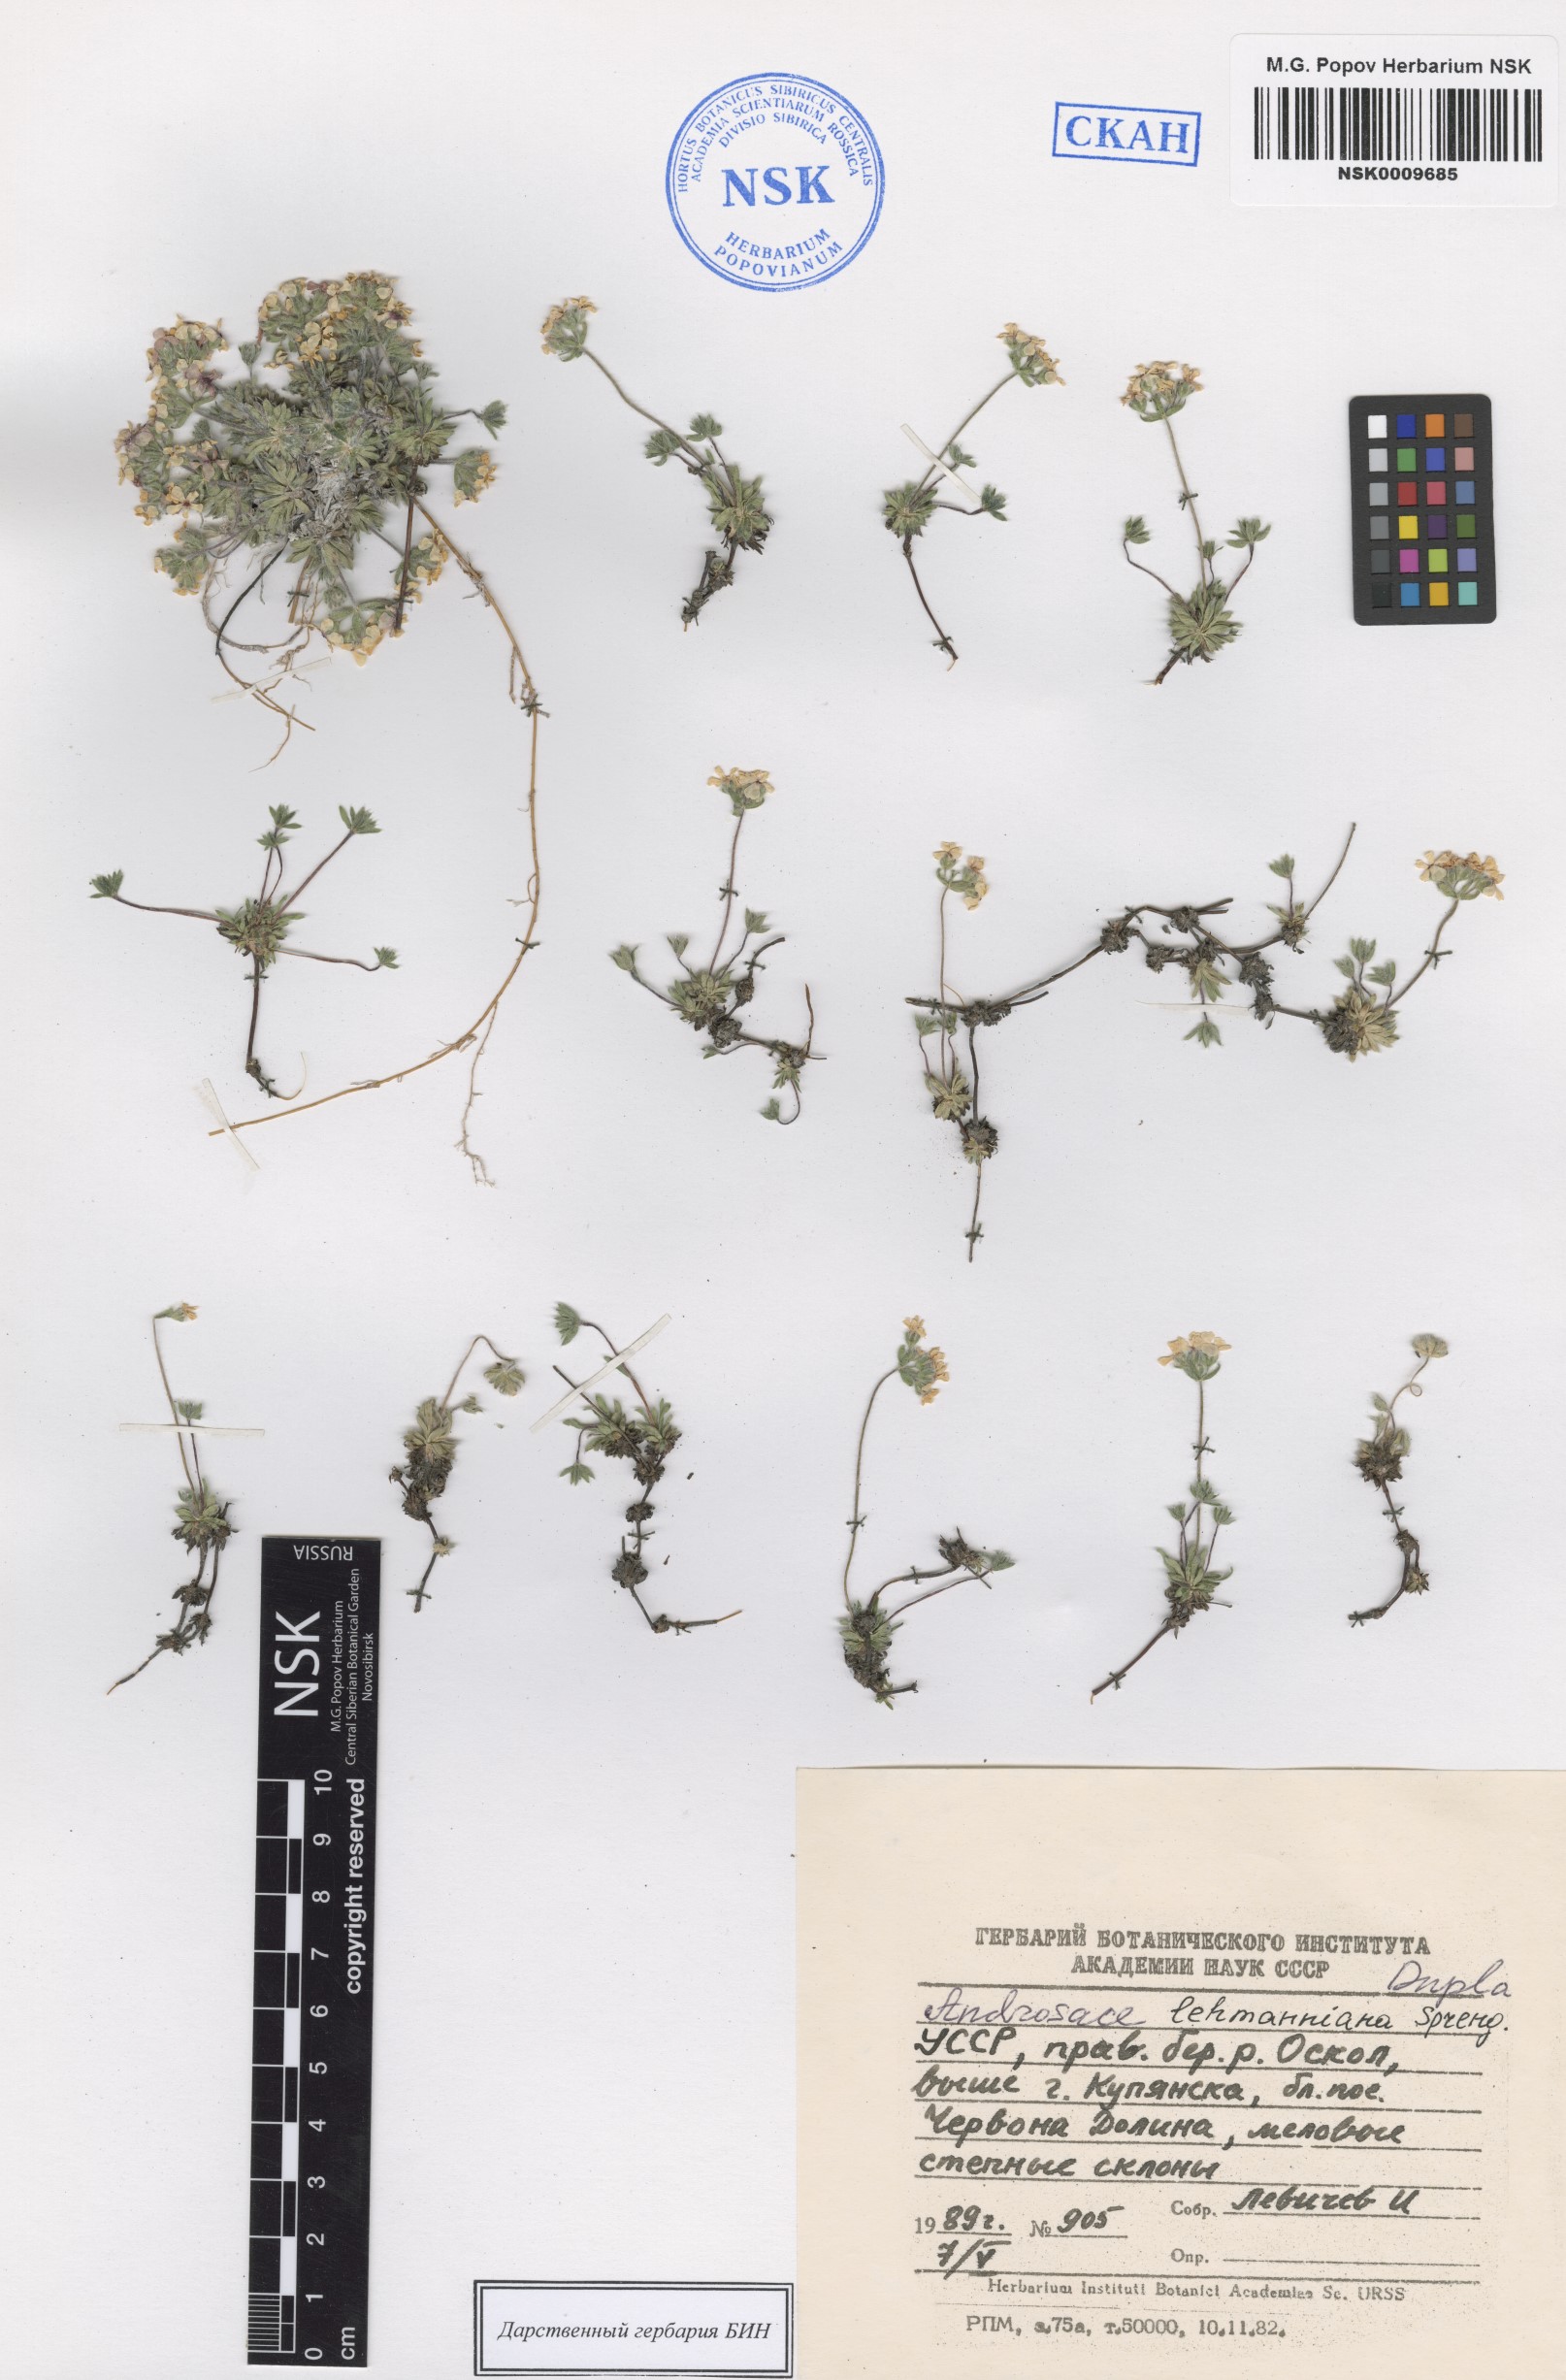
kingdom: Plantae
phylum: Tracheophyta
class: Magnoliopsida
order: Ericales
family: Primulaceae
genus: Androsace
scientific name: Androsace chamaejasme
